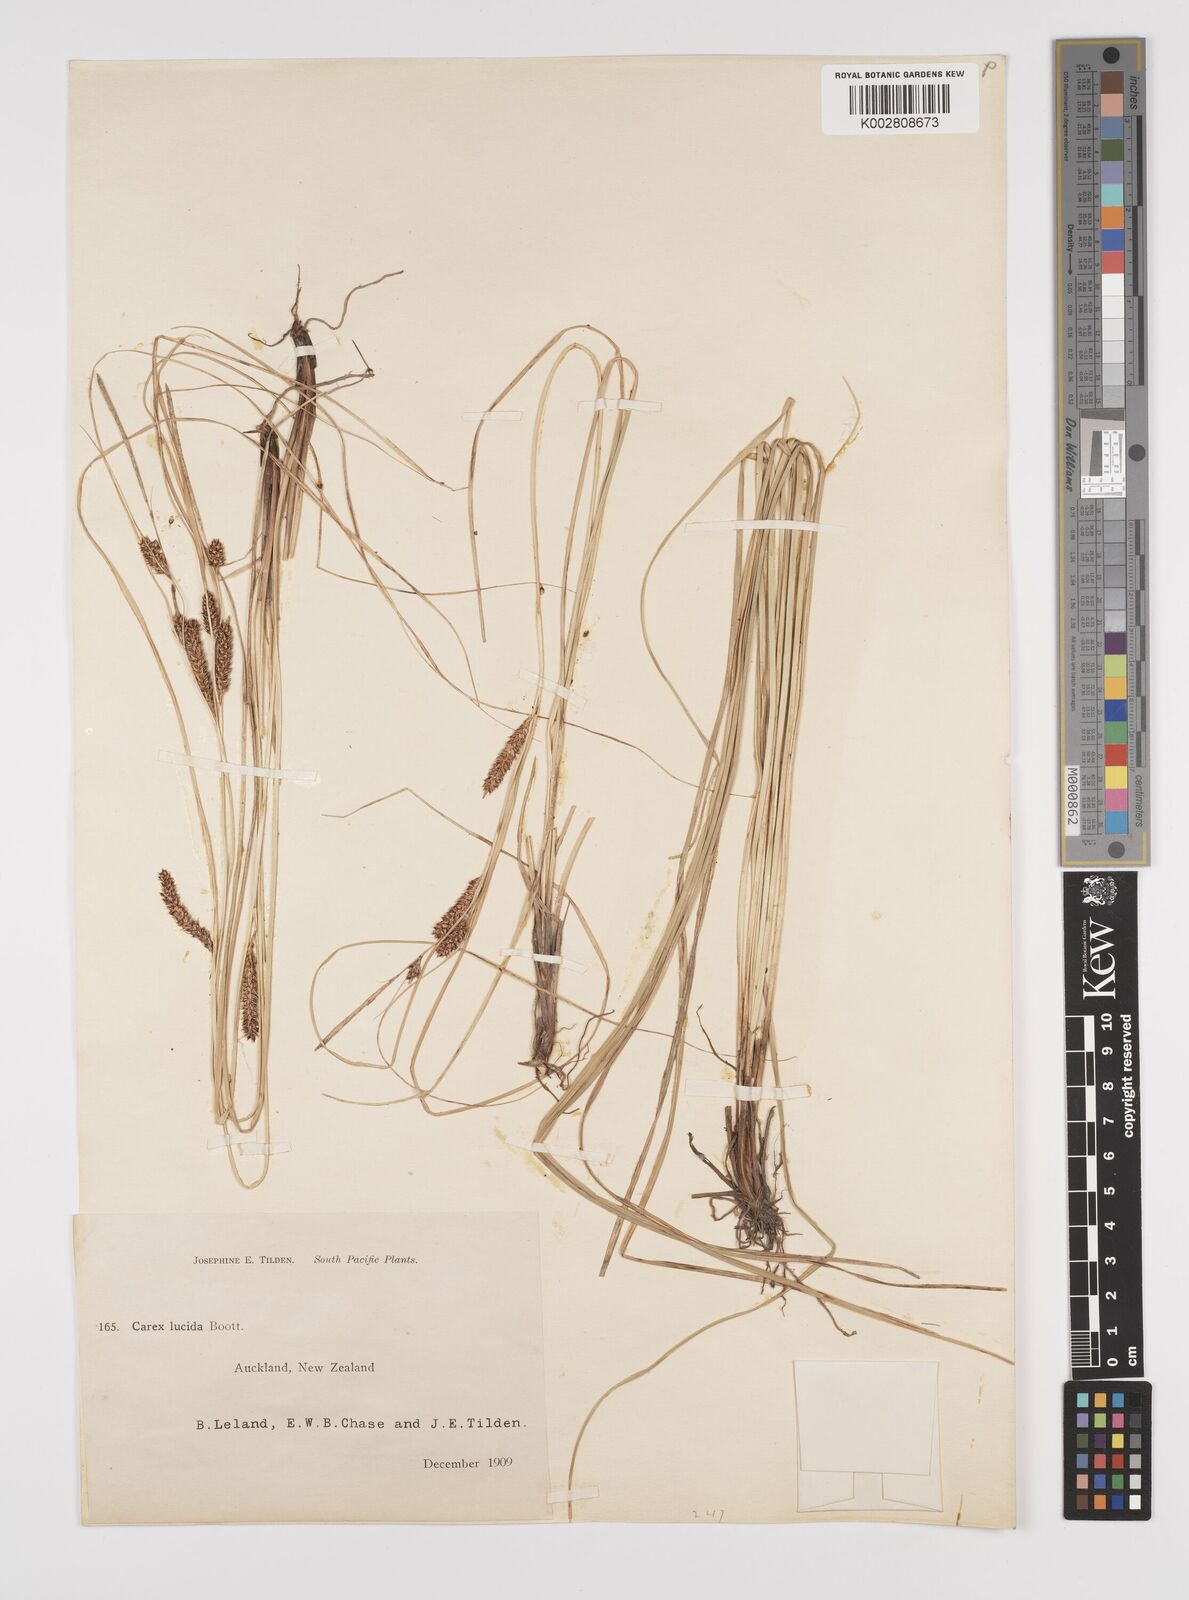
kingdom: Plantae
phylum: Tracheophyta
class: Liliopsida
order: Poales
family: Cyperaceae
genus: Carex
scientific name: Carex flagellifera
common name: Glen murray tussock
